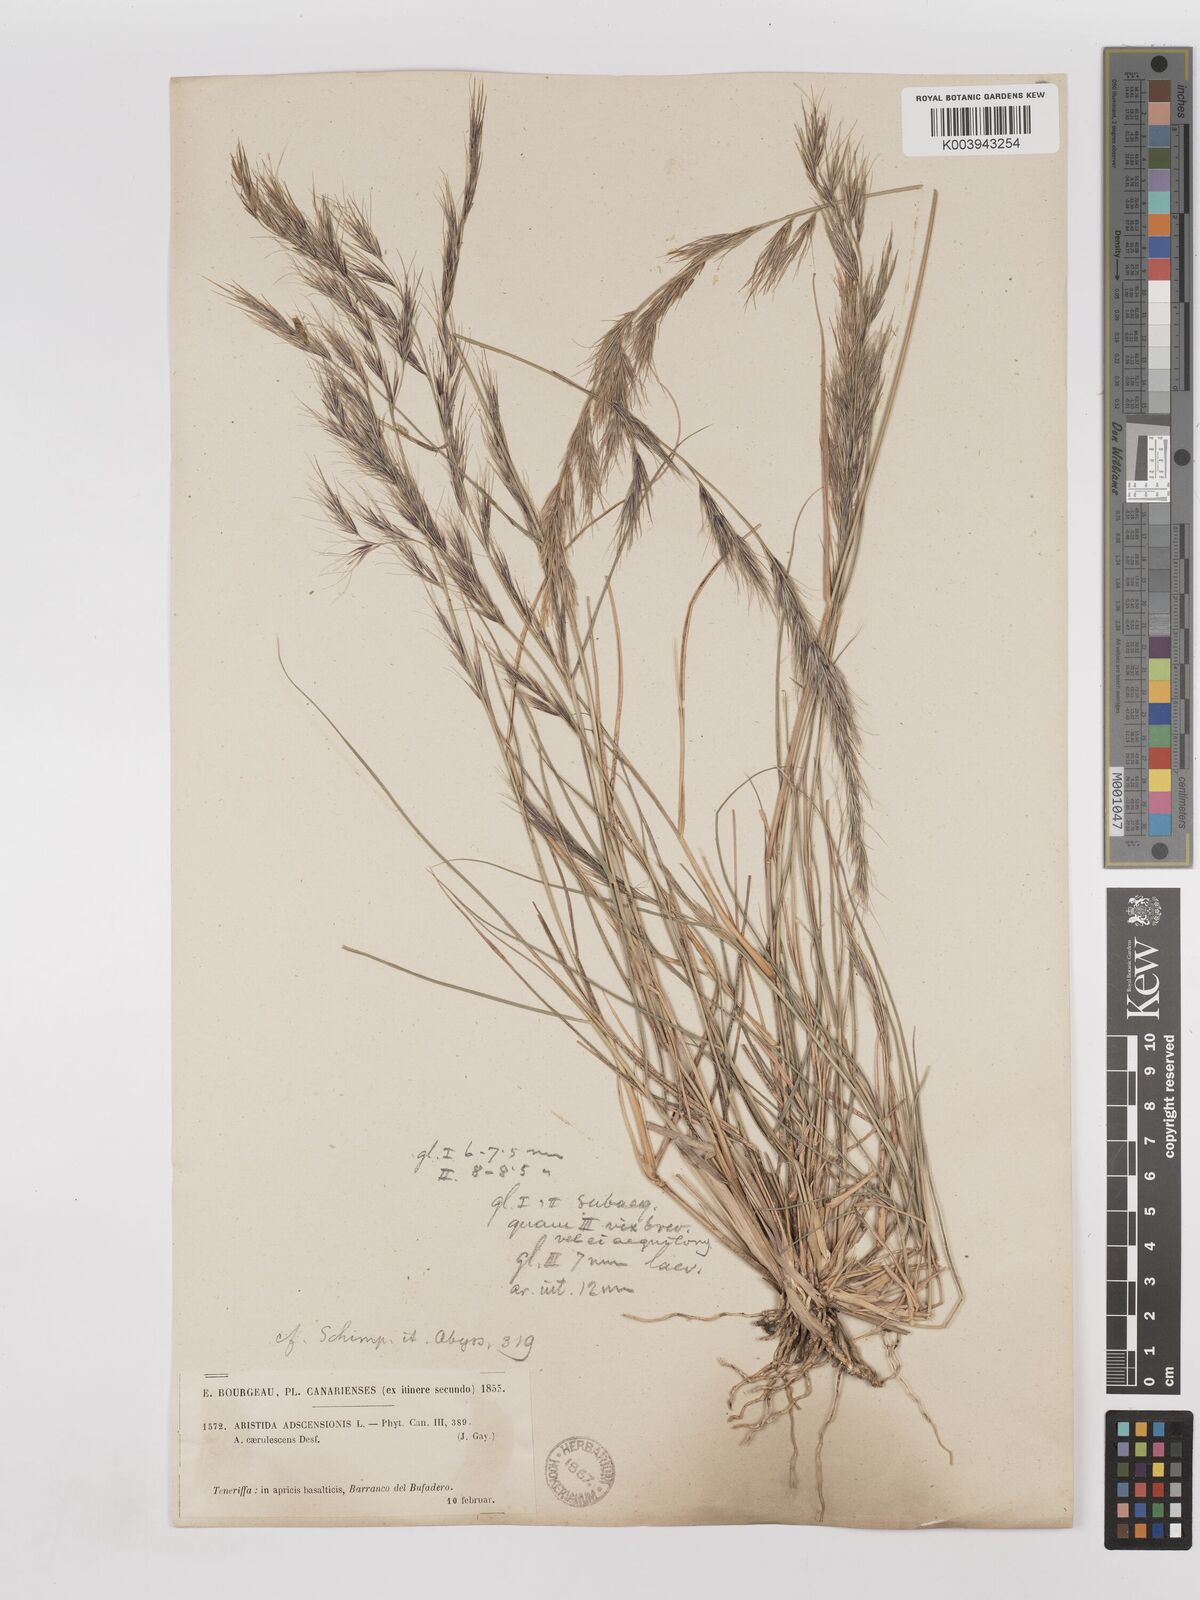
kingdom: Plantae
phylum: Tracheophyta
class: Liliopsida
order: Poales
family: Poaceae
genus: Aristida
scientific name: Aristida adscensionis
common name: Sixweeks threeawn
